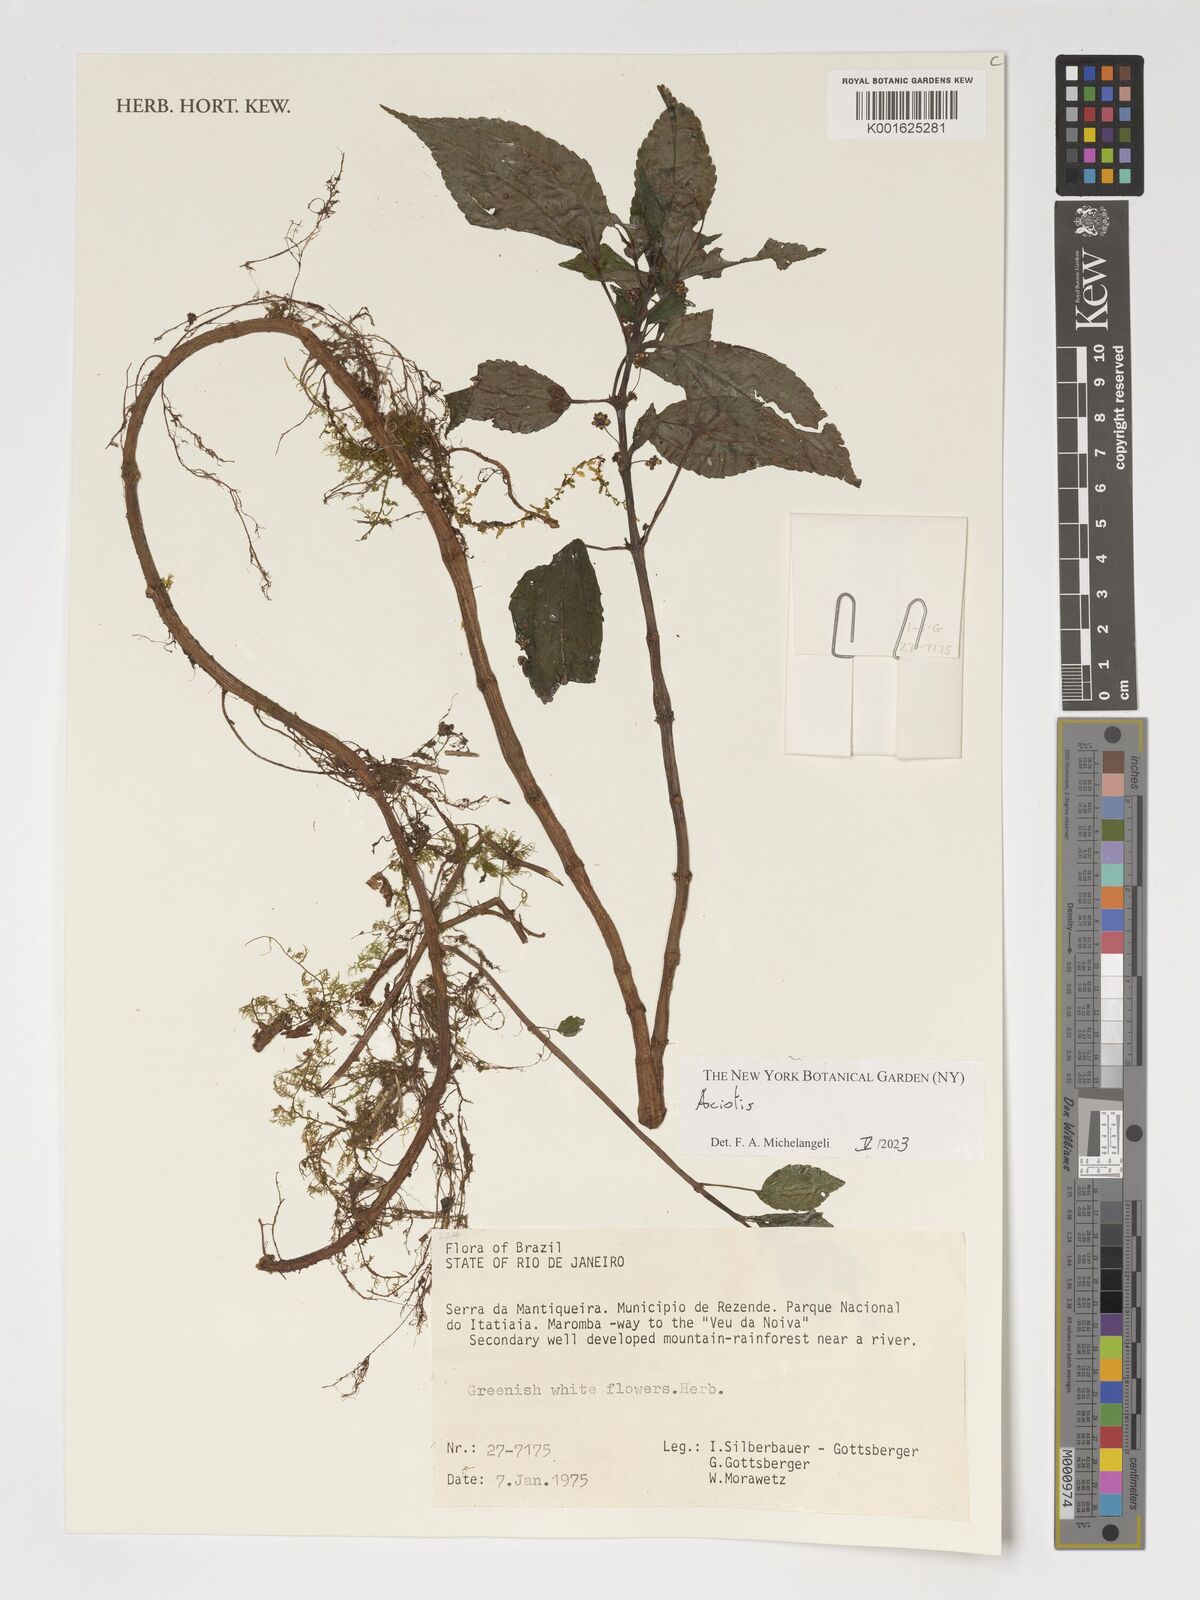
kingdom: Plantae
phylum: Tracheophyta
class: Magnoliopsida
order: Myrtales
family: Melastomataceae
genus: Aciotis
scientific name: Aciotis
